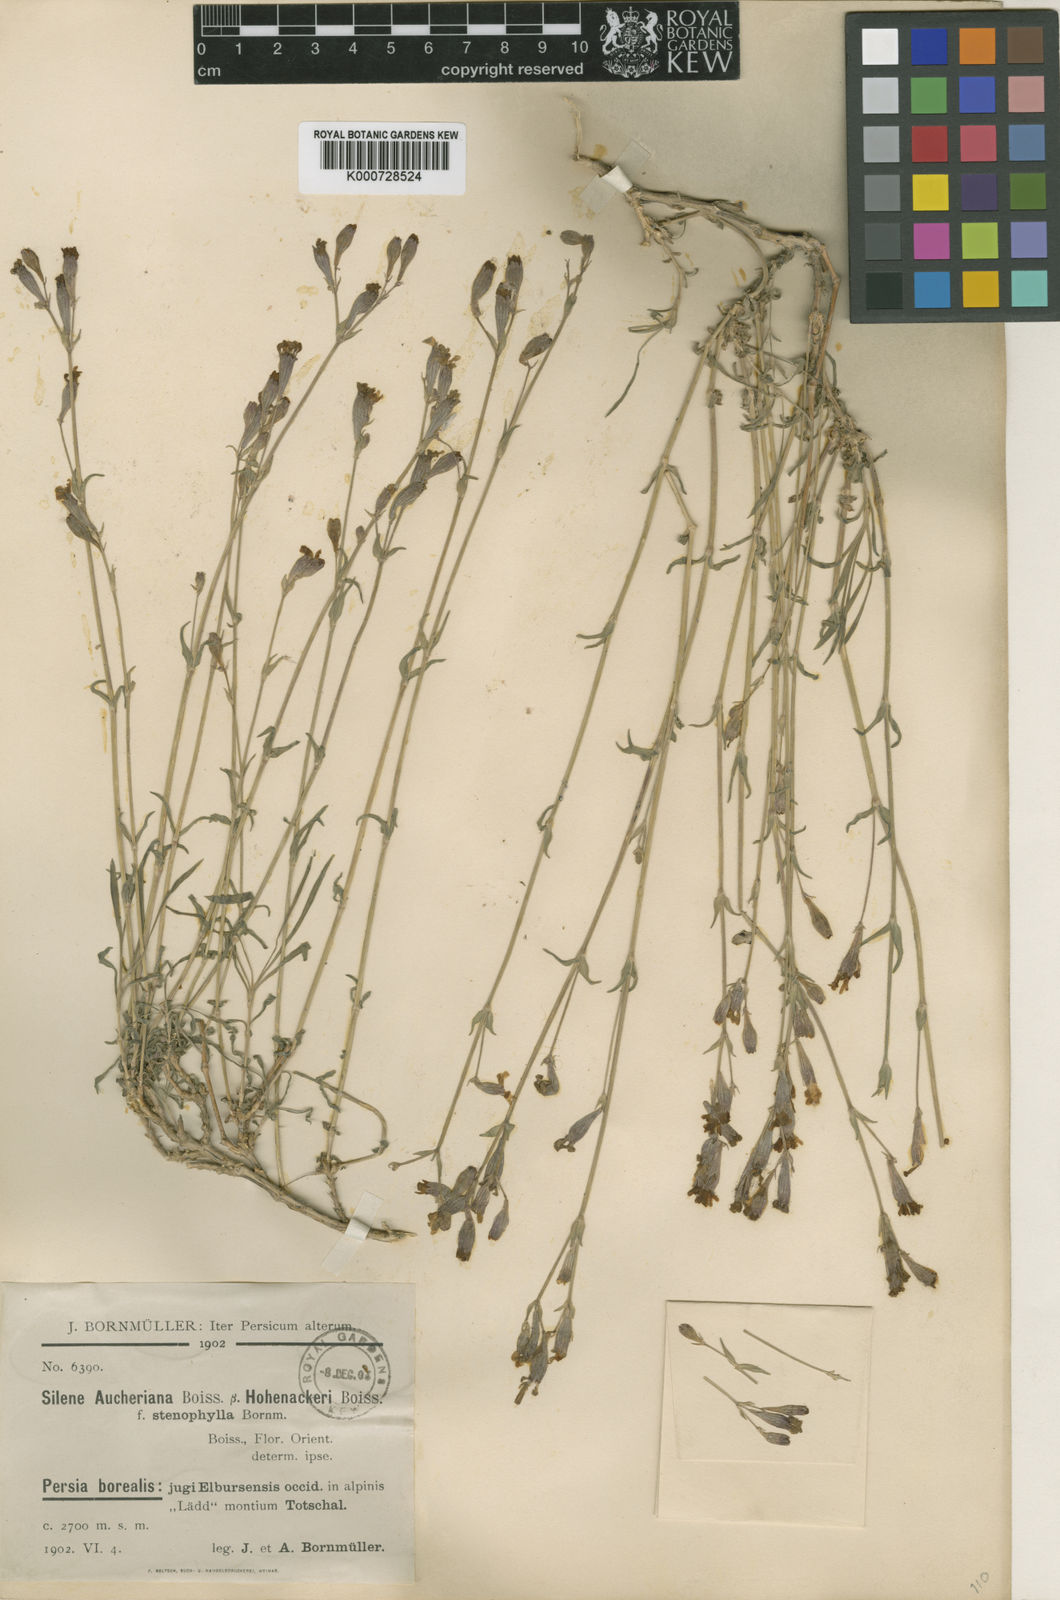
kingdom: Plantae
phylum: Tracheophyta
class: Magnoliopsida
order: Caryophyllales
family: Caryophyllaceae
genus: Silene
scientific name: Silene aucheriana
